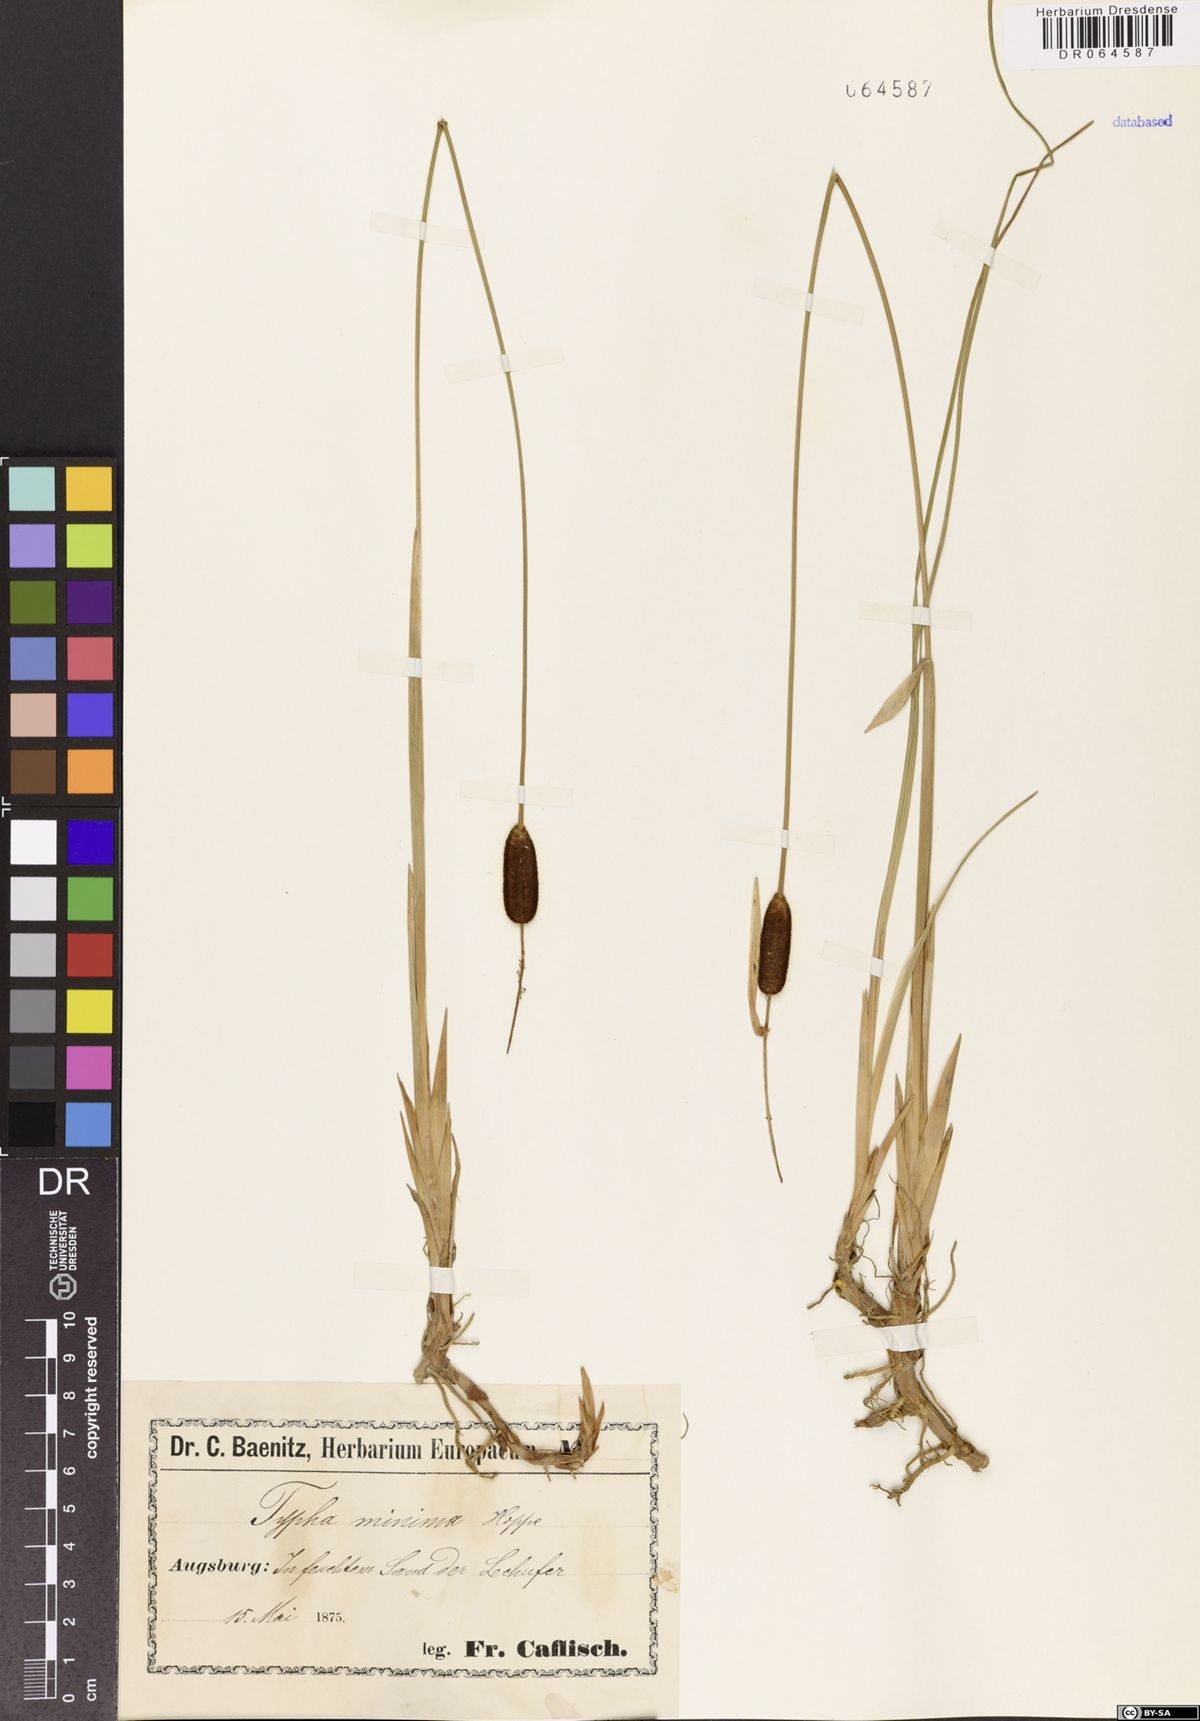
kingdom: Plantae
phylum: Tracheophyta
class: Liliopsida
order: Poales
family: Typhaceae
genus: Typha
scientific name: Typha minima
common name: Dwarf bulrush
